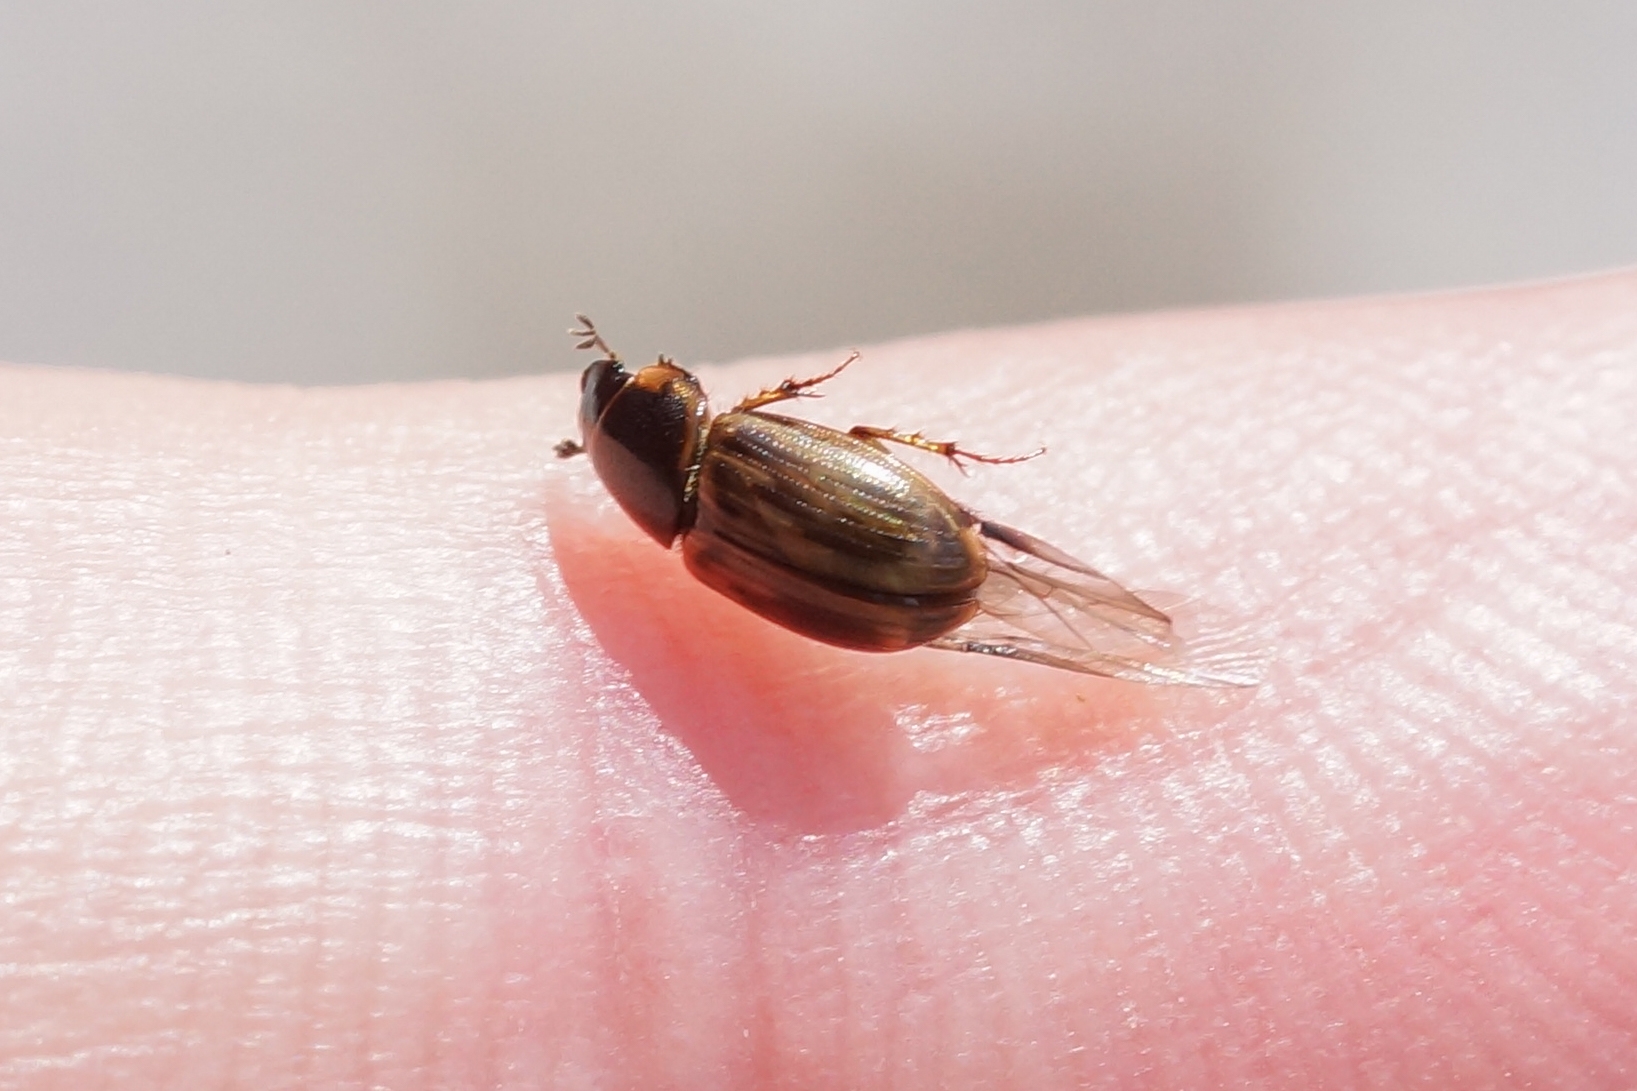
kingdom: Animalia
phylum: Arthropoda
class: Insecta
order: Coleoptera
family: Scarabaeidae
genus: Melinopterus
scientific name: Melinopterus sphacelatus
